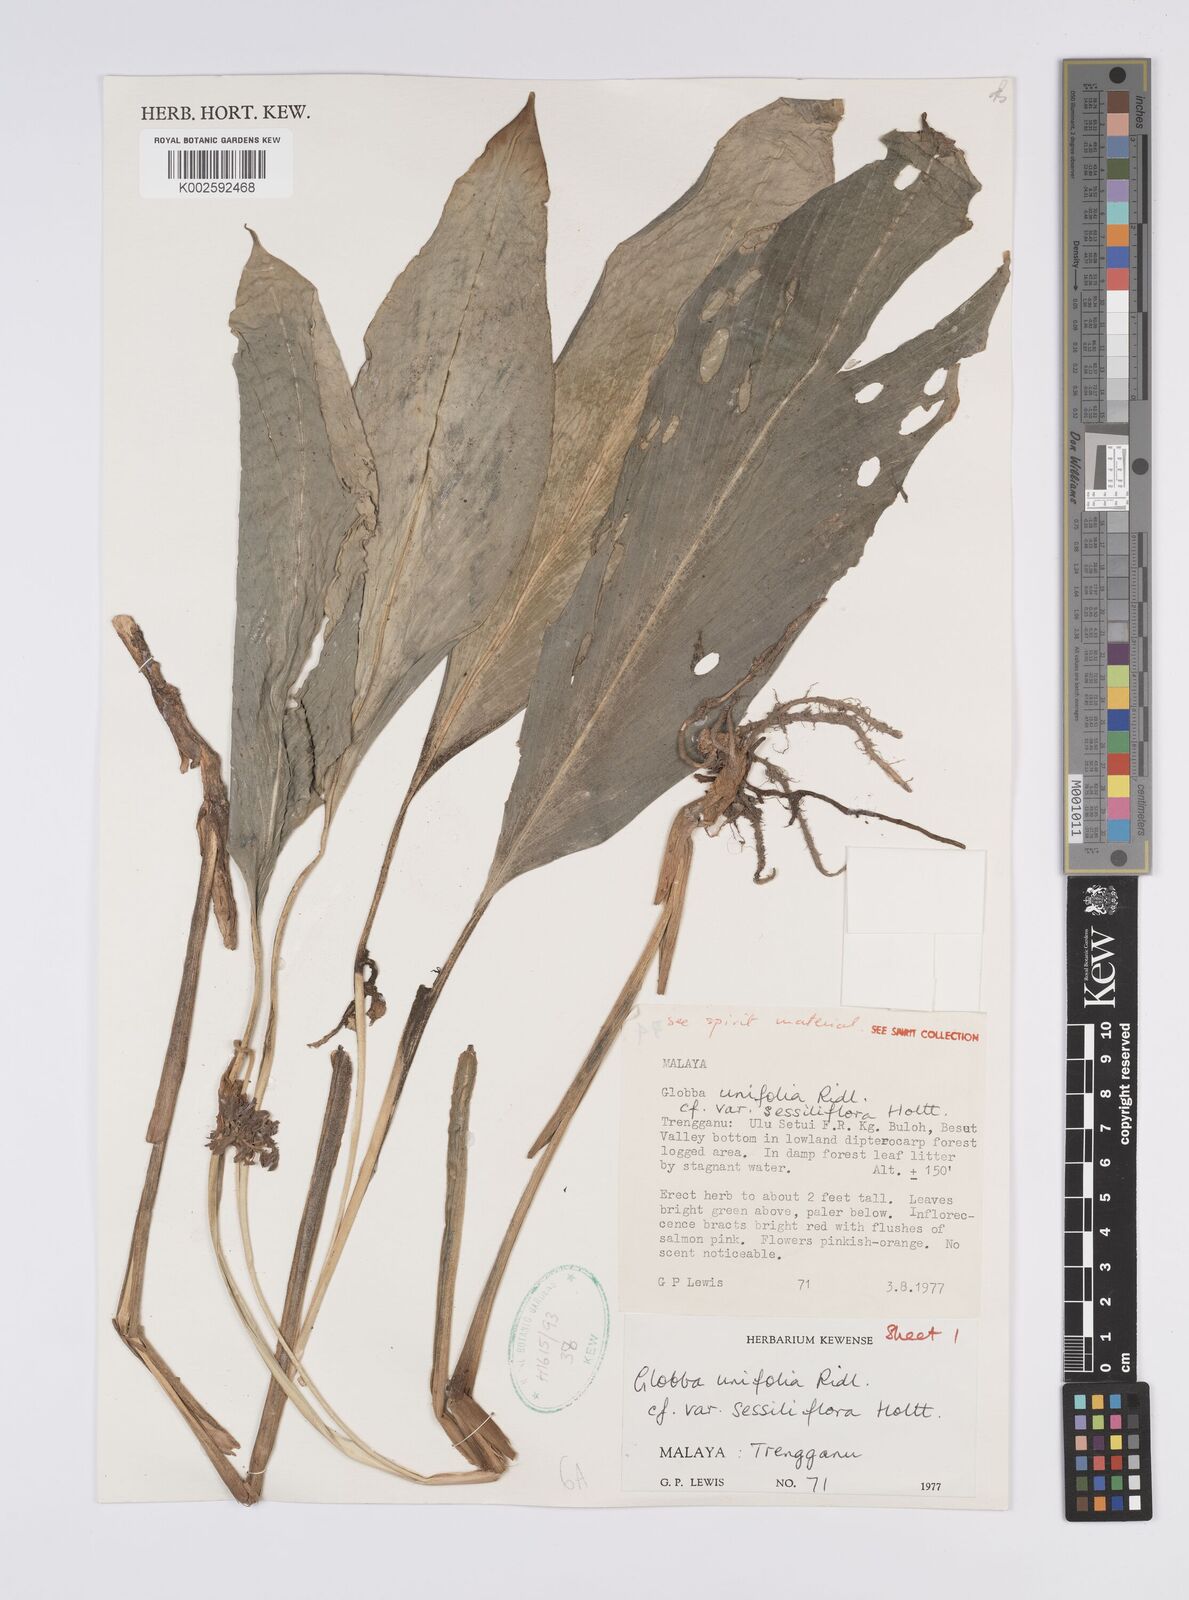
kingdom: Plantae
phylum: Tracheophyta
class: Liliopsida
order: Zingiberales
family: Zingiberaceae
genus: Globba
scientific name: Globba unifolia
